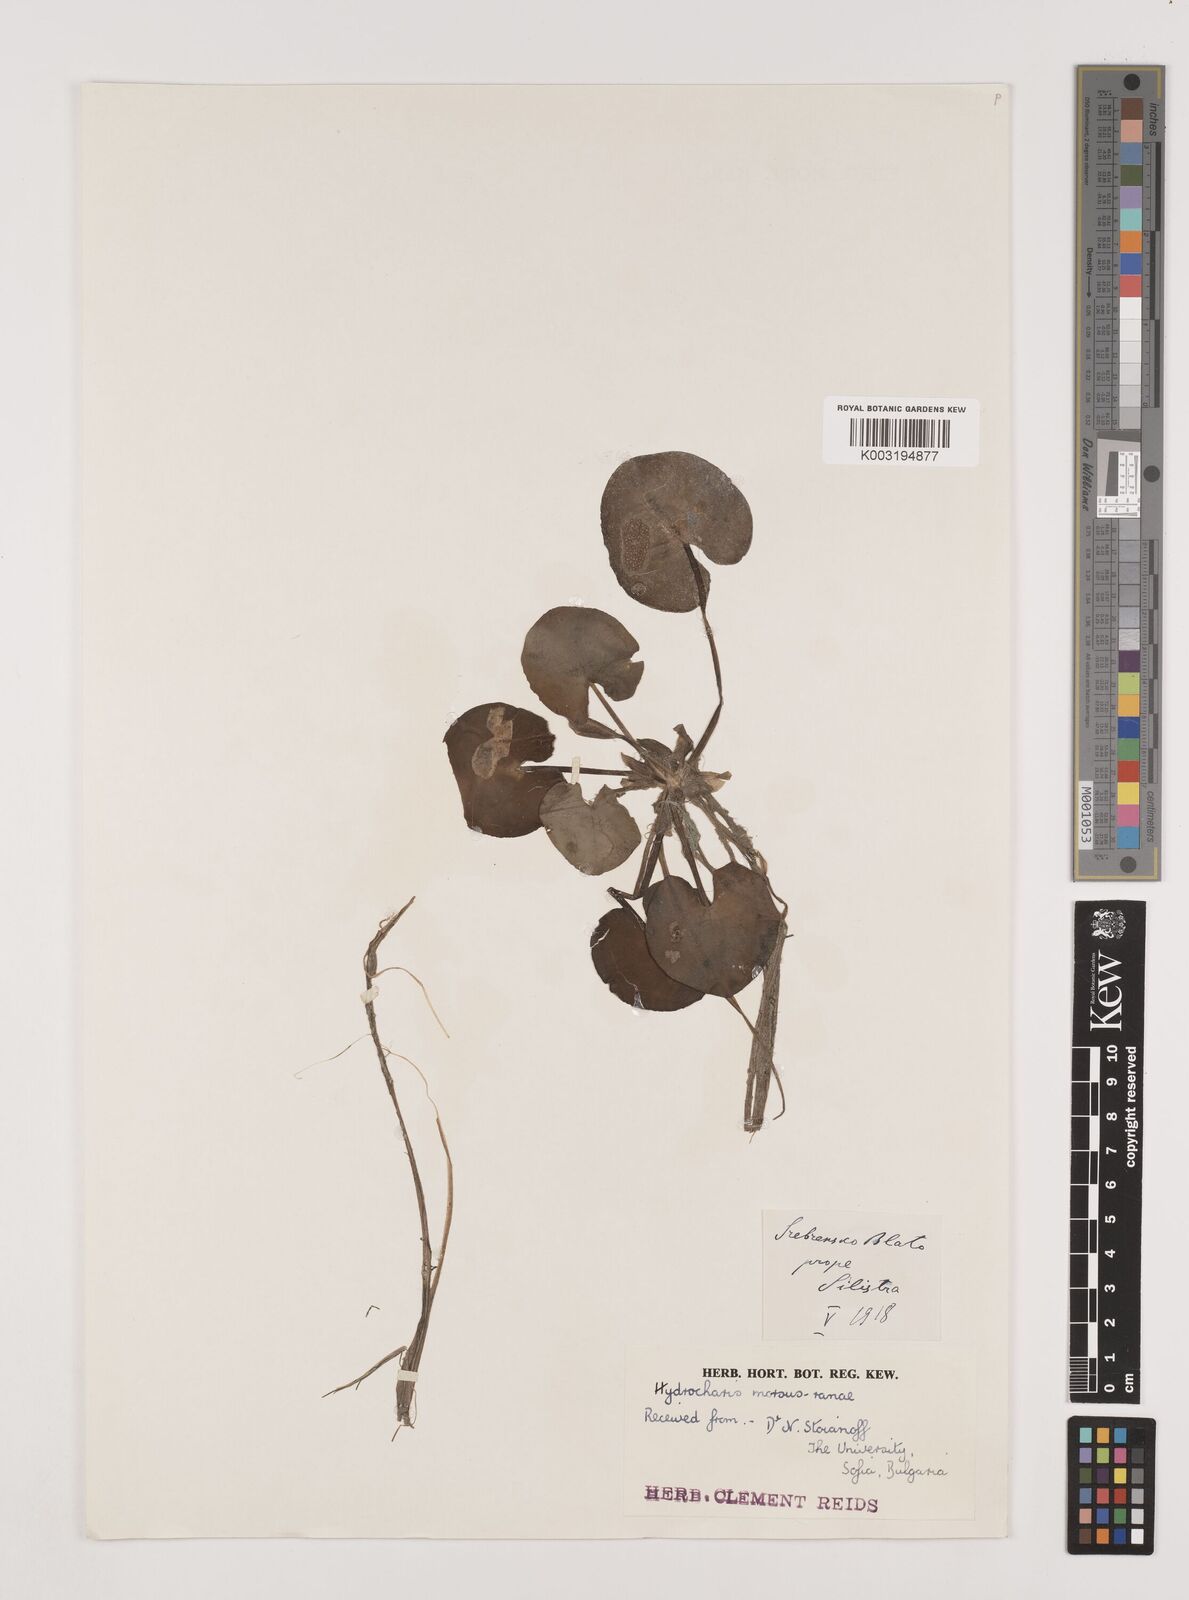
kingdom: Plantae
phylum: Tracheophyta
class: Liliopsida
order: Alismatales
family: Hydrocharitaceae
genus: Hydrocharis
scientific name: Hydrocharis morsus-ranae
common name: Frogbit
